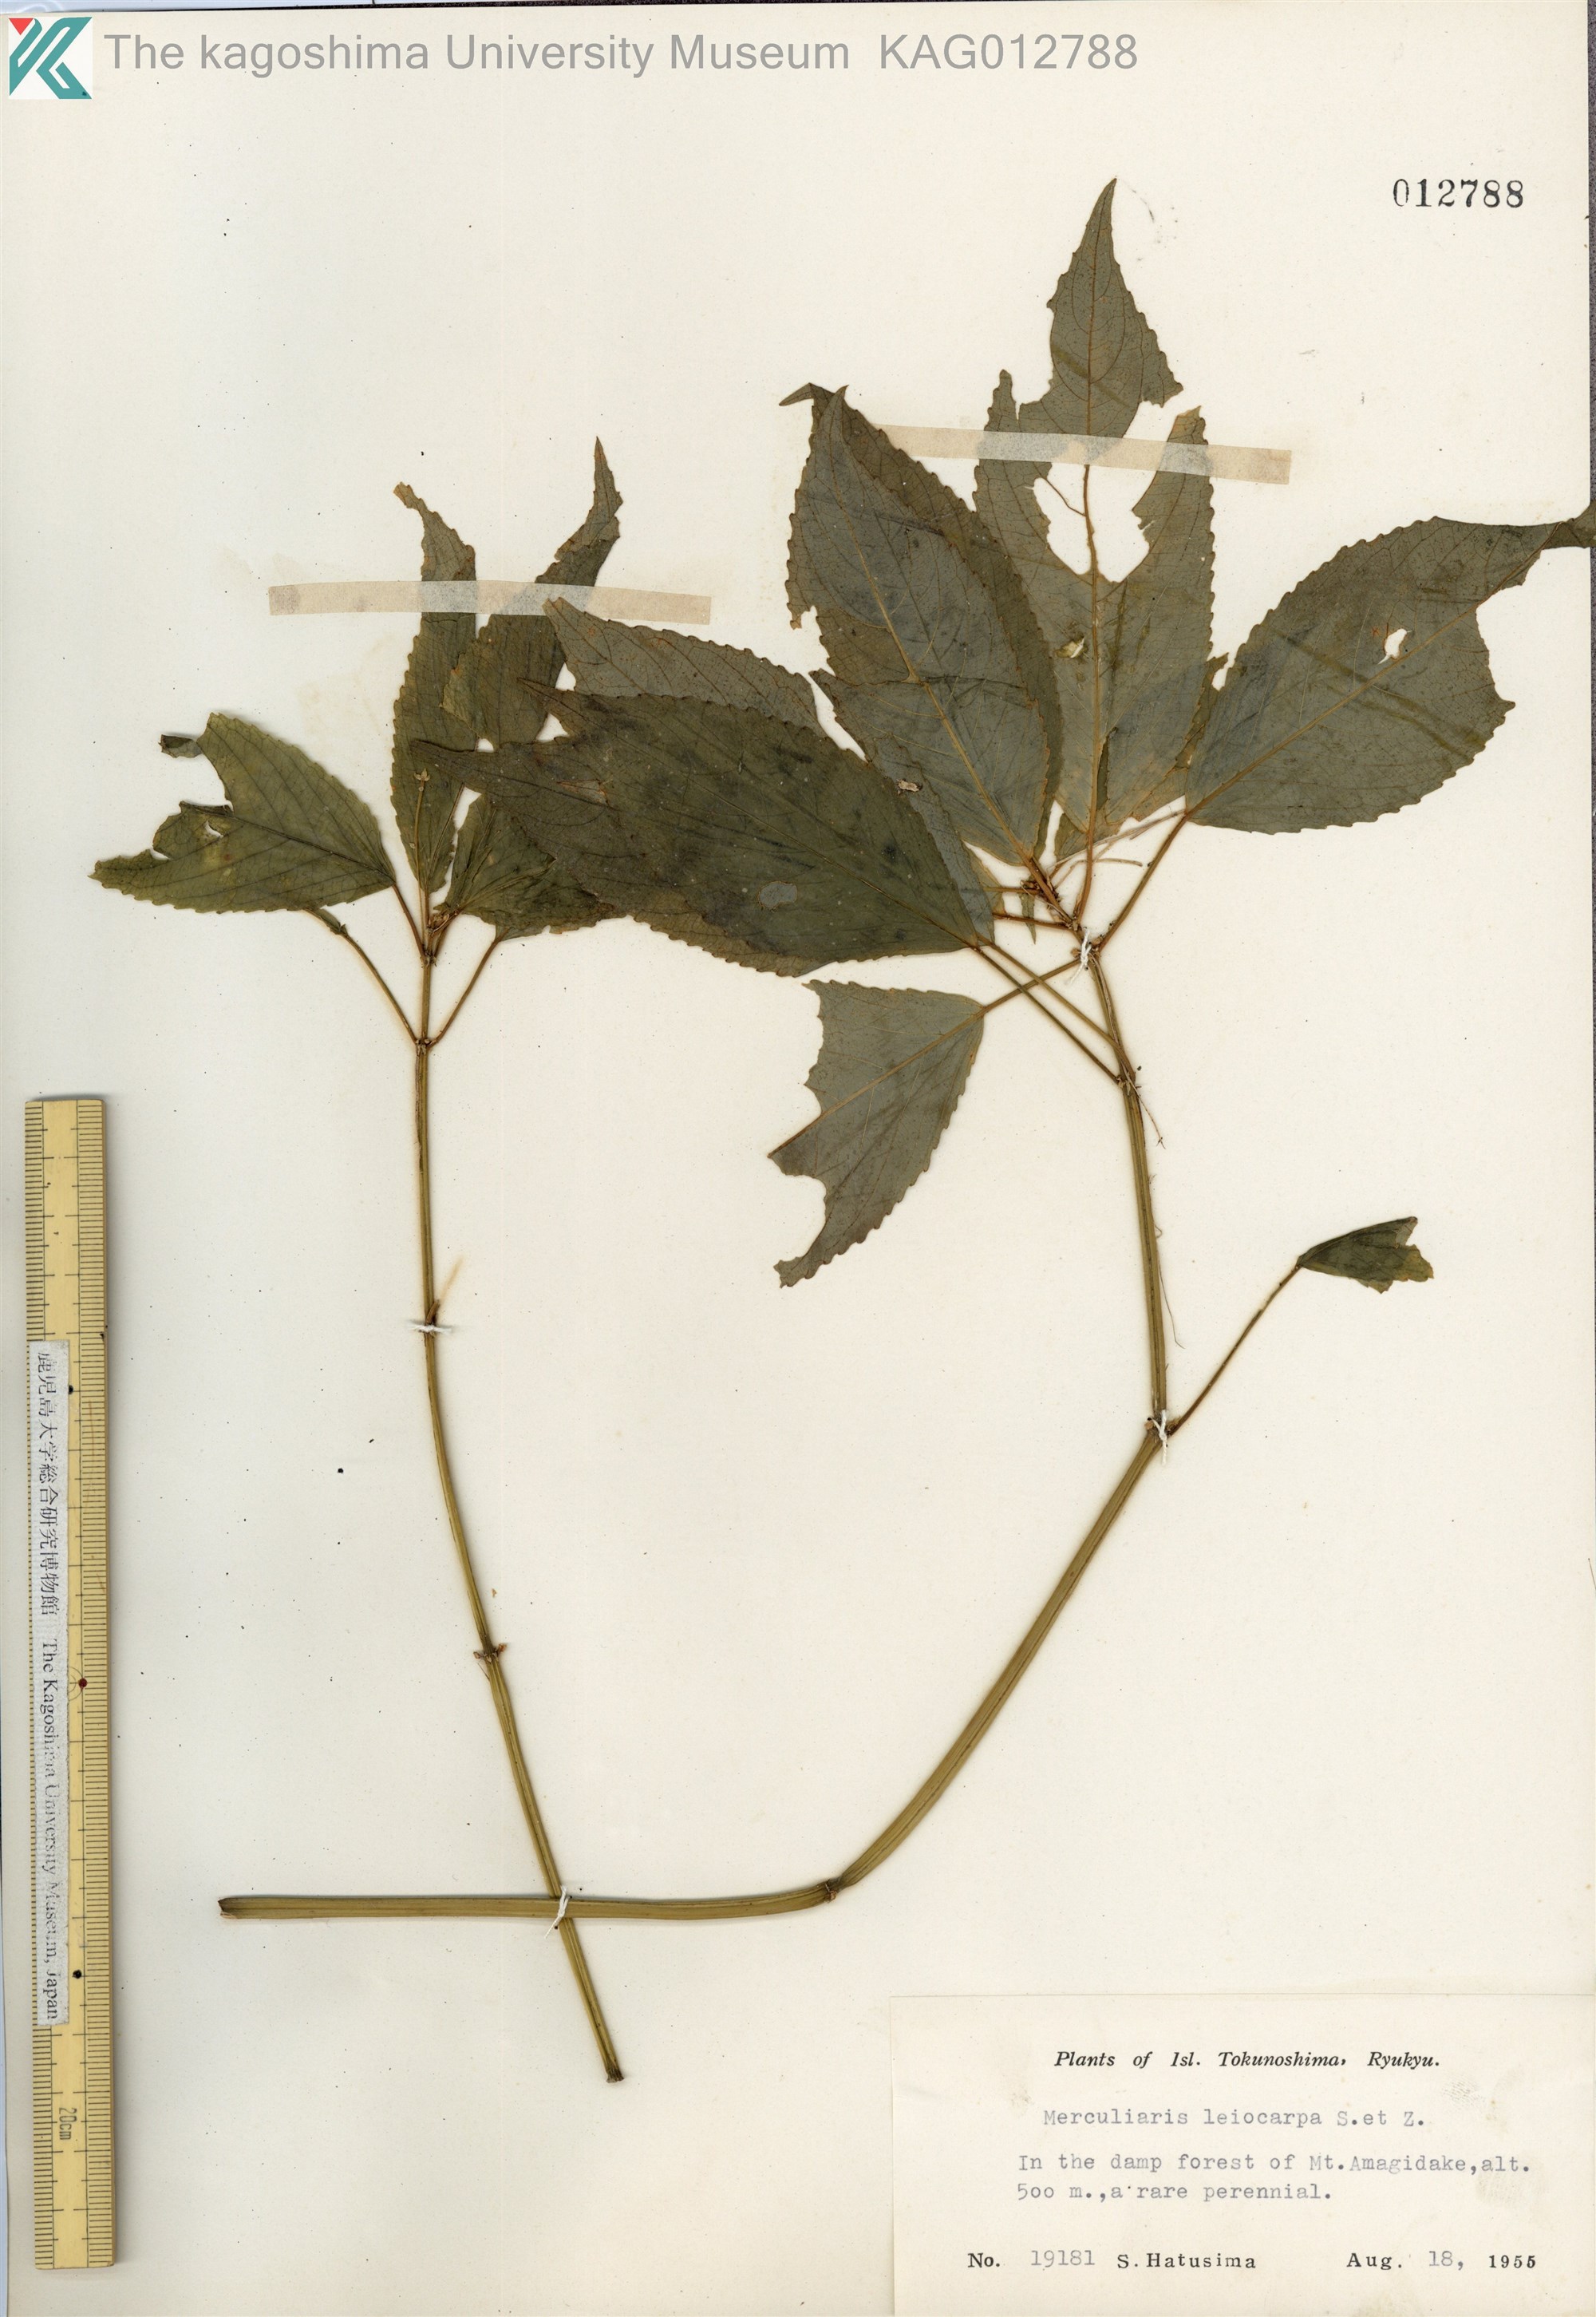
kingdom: Plantae
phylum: Tracheophyta
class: Magnoliopsida
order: Malpighiales
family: Euphorbiaceae
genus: Mercurialis
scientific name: Mercurialis leiocarpa
